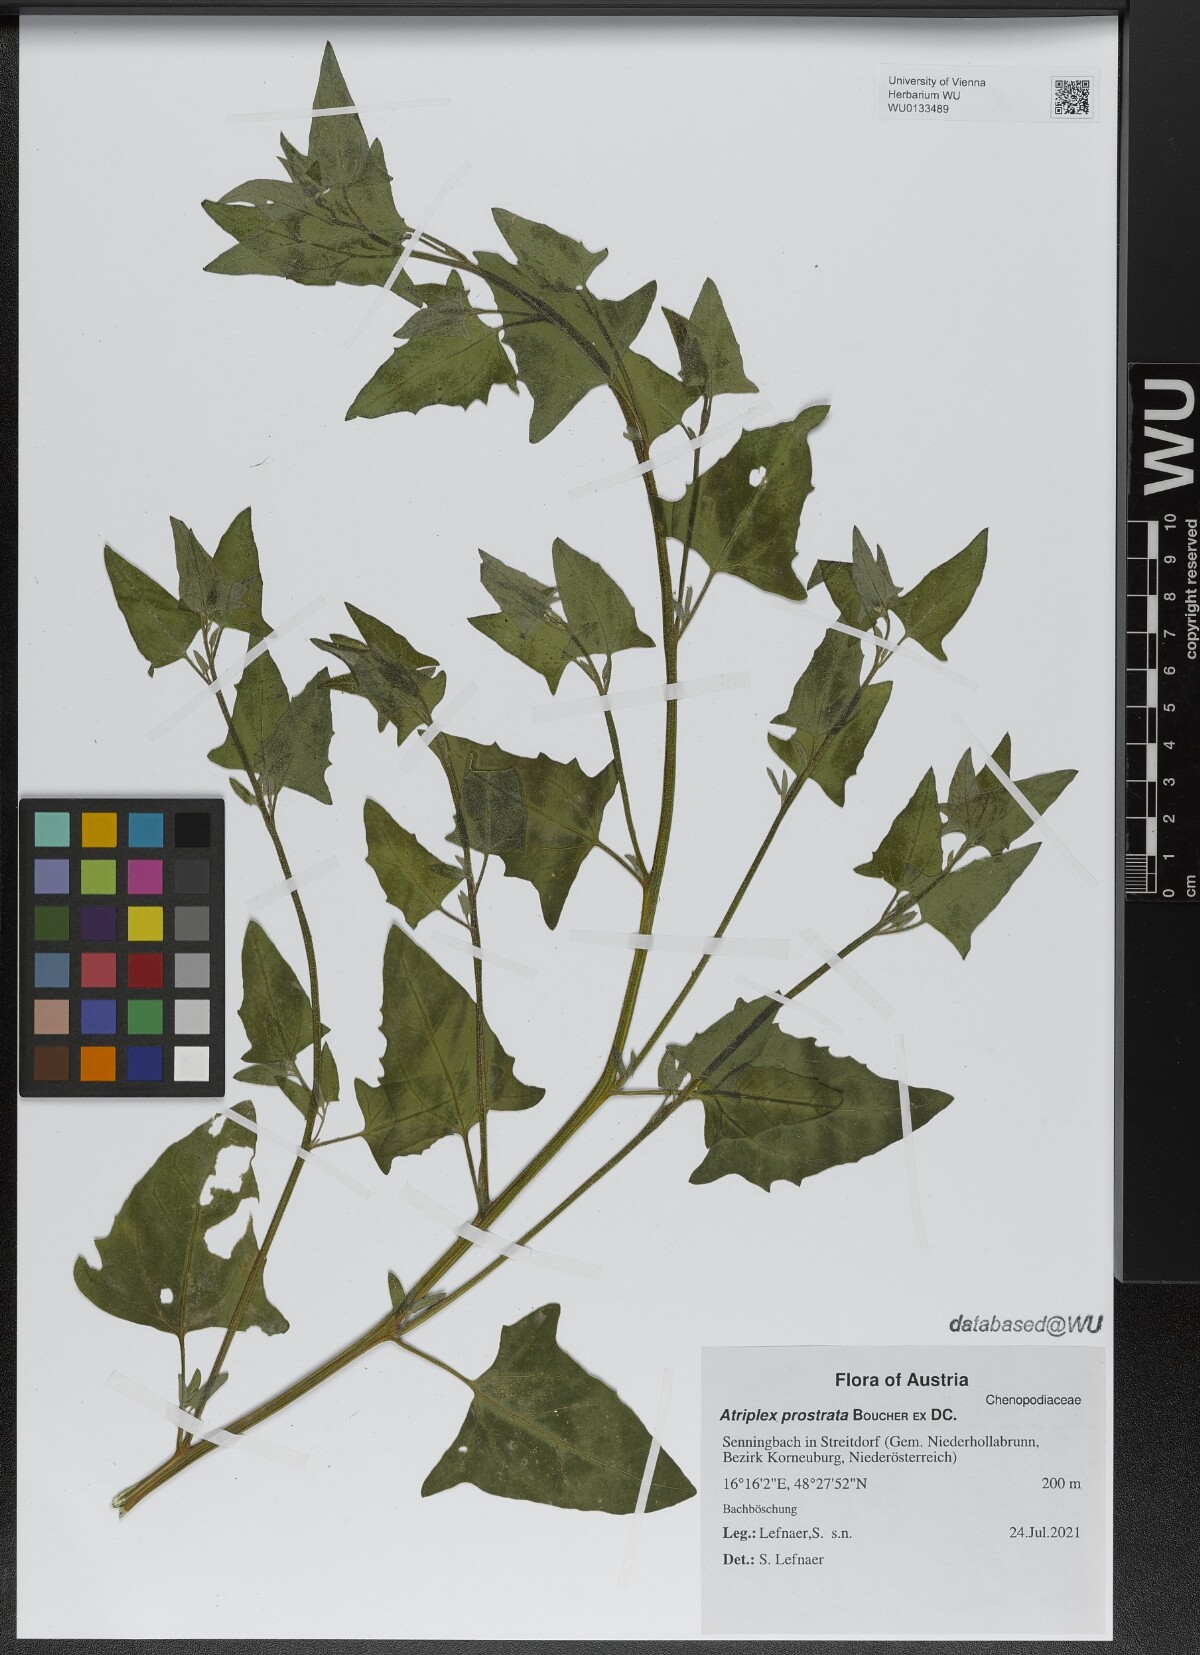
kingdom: Plantae
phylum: Tracheophyta
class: Magnoliopsida
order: Caryophyllales
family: Amaranthaceae
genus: Atriplex
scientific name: Atriplex prostrata
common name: Spear-leaved orache
